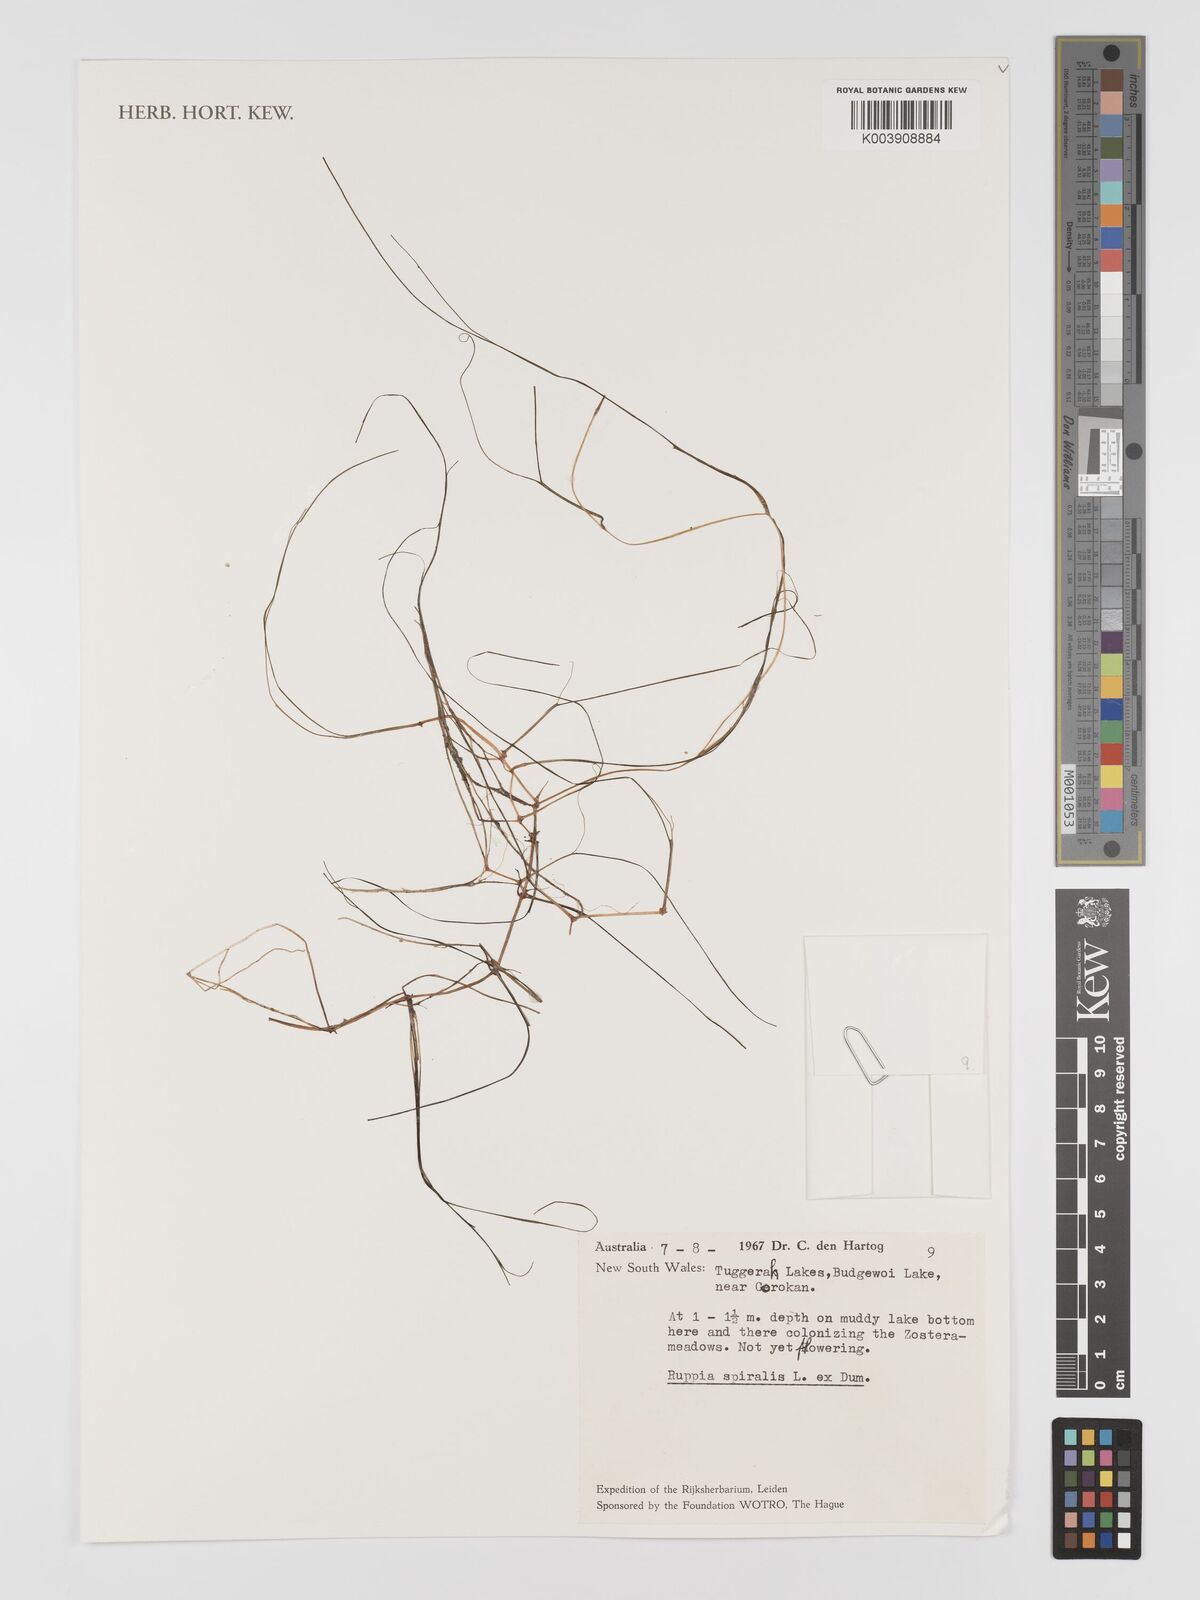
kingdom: Plantae
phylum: Tracheophyta
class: Liliopsida
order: Alismatales
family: Ruppiaceae
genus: Ruppia
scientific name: Ruppia
